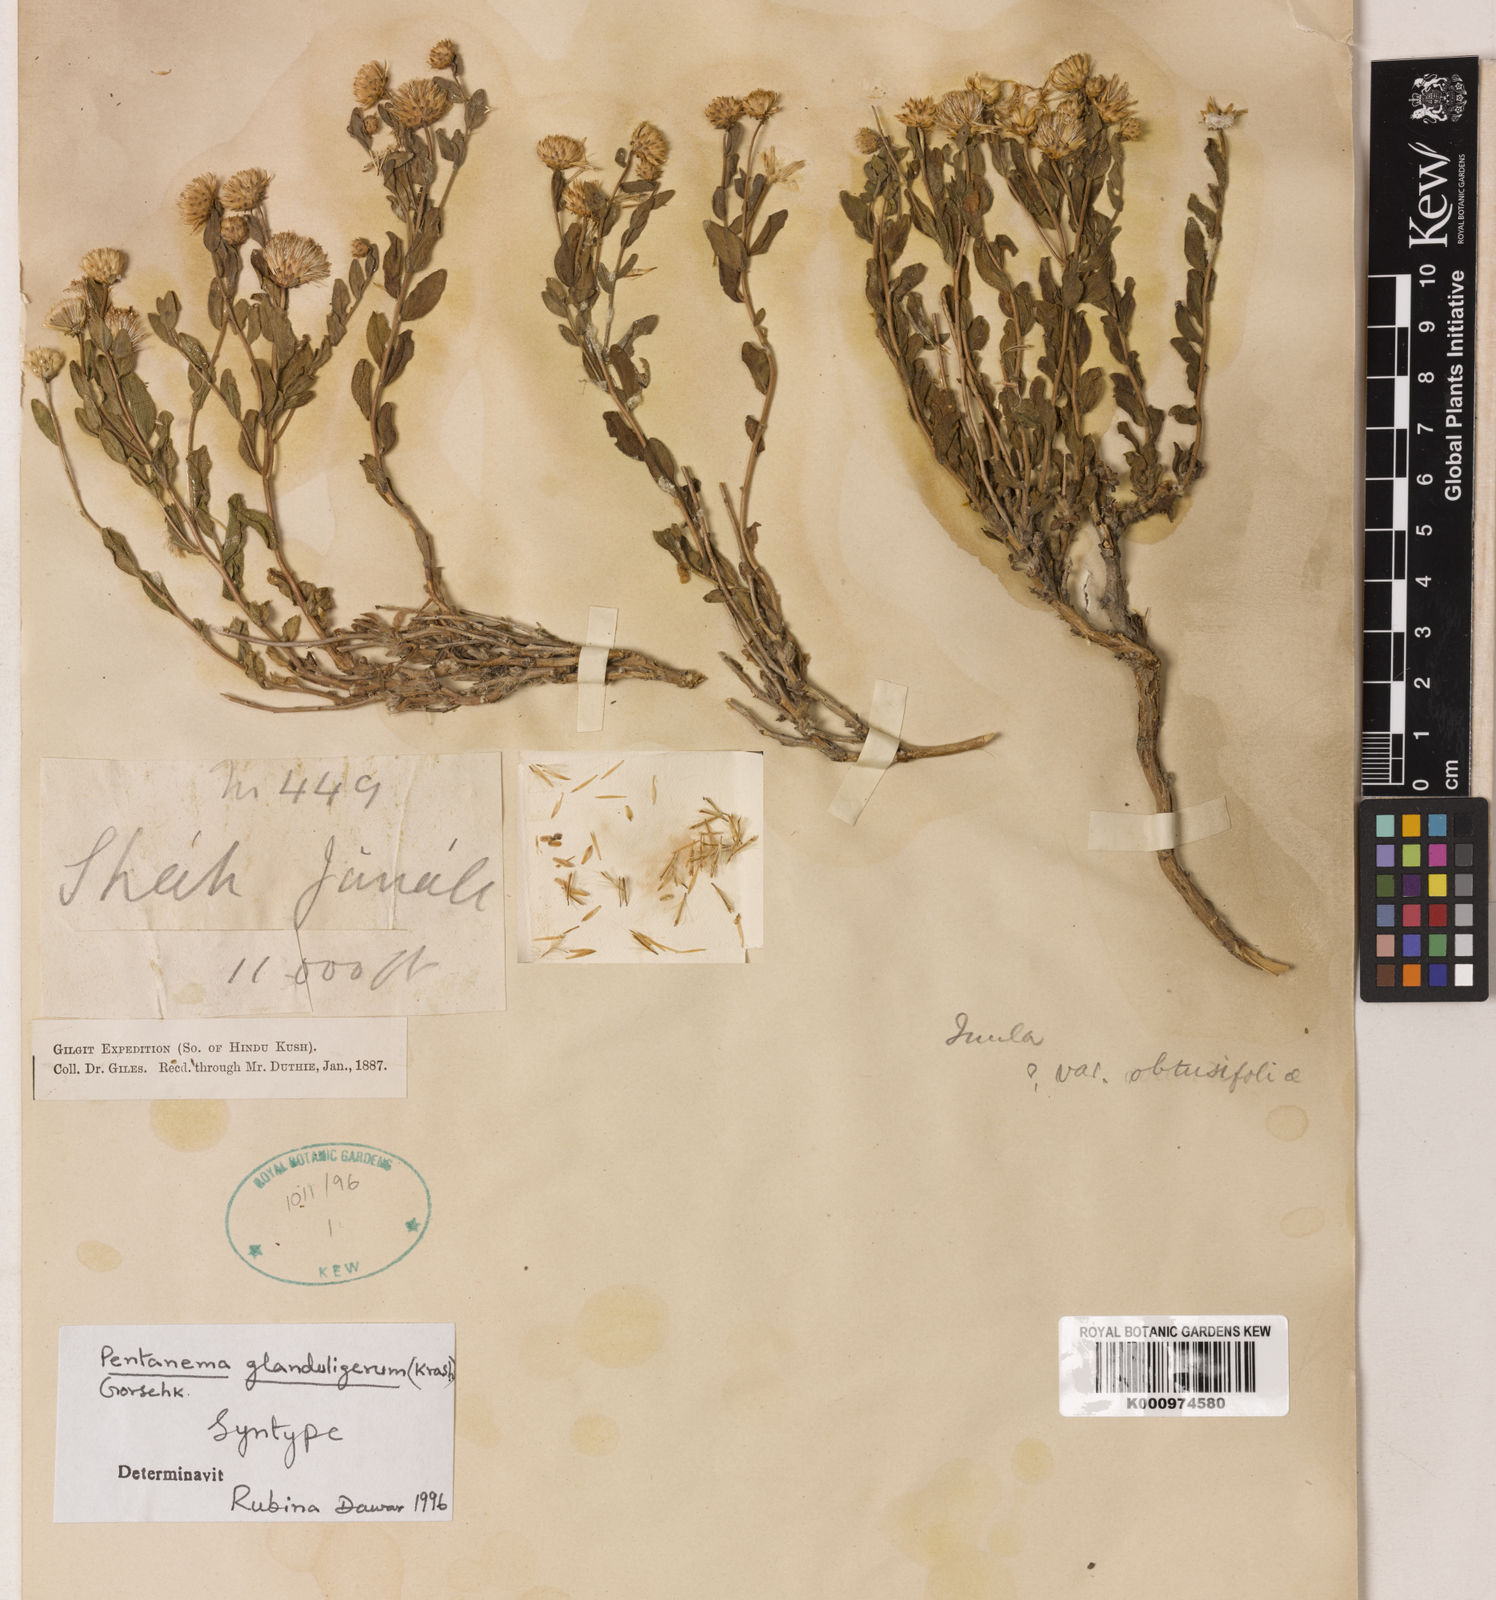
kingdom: Plantae
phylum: Tracheophyta
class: Magnoliopsida
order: Asterales
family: Asteraceae
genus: Vicoa
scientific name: Vicoa glanduligera
